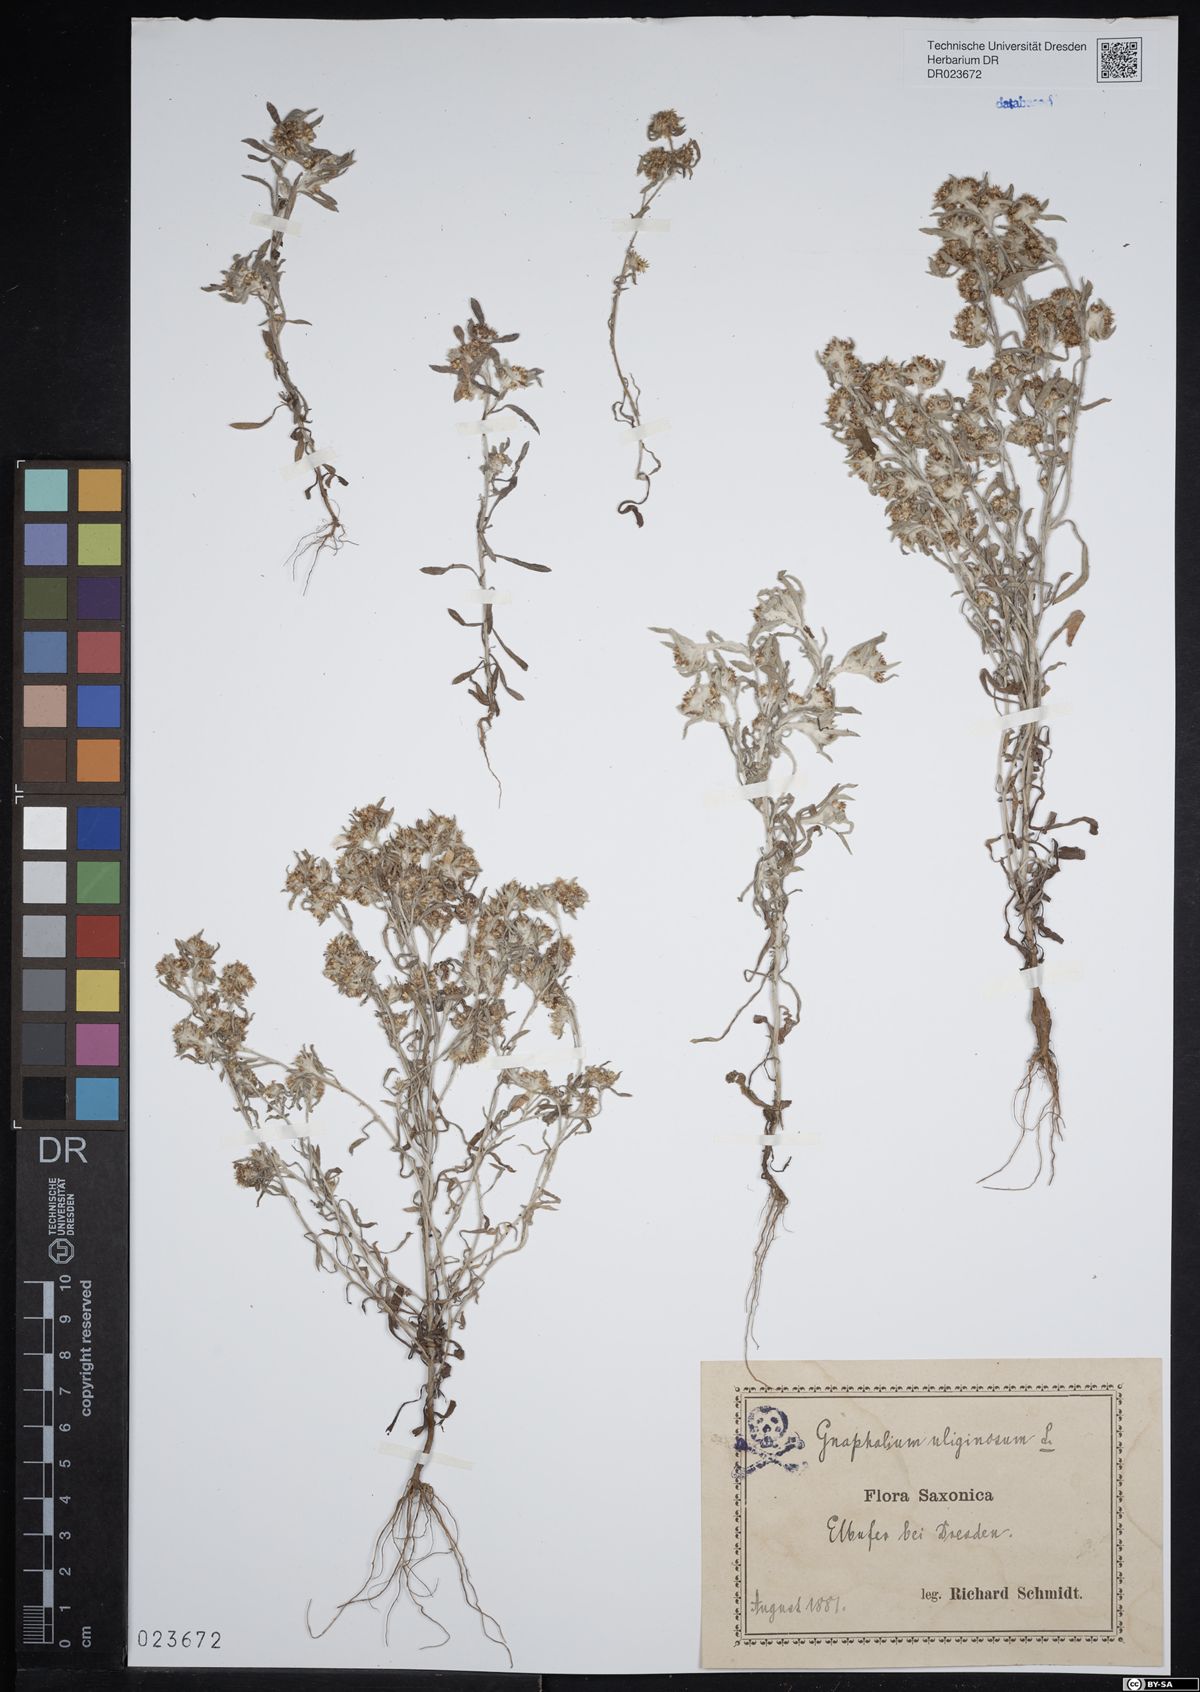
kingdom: Plantae
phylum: Tracheophyta
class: Magnoliopsida
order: Asterales
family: Asteraceae
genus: Gnaphalium
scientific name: Gnaphalium uliginosum
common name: Marsh cudweed
